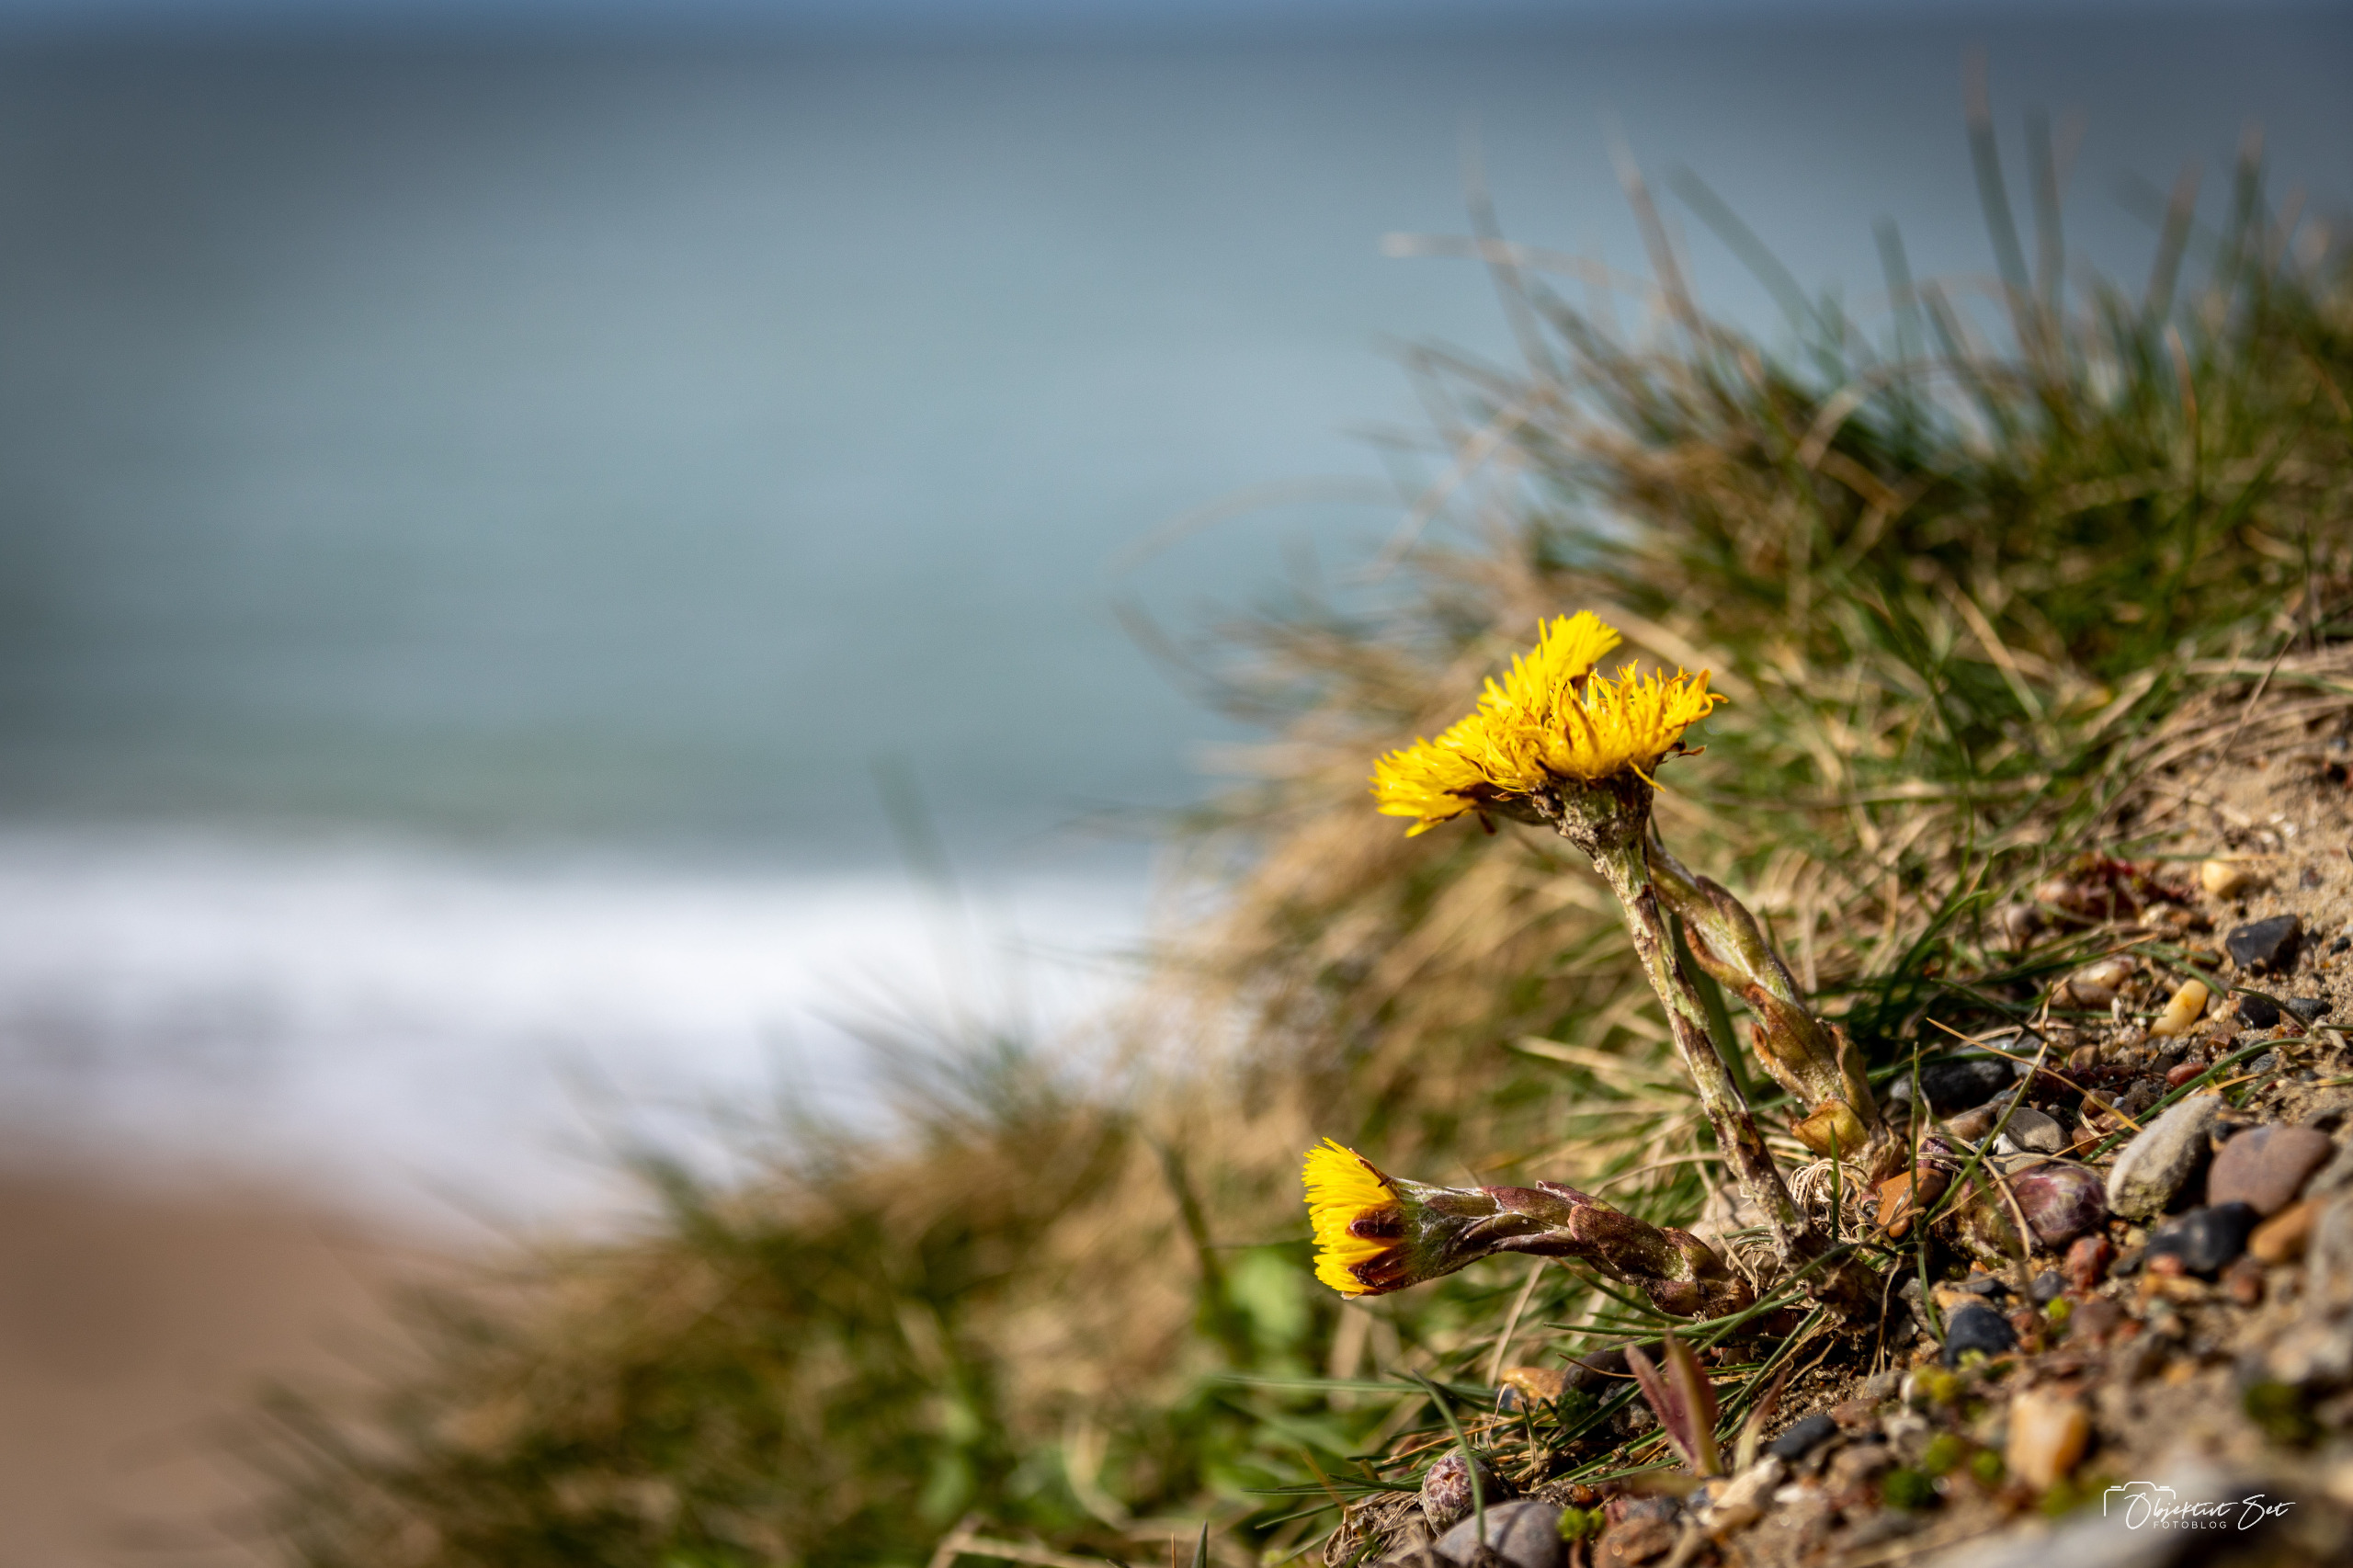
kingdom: Plantae
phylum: Tracheophyta
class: Magnoliopsida
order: Asterales
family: Asteraceae
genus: Tussilago
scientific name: Tussilago farfara
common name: Følfod
